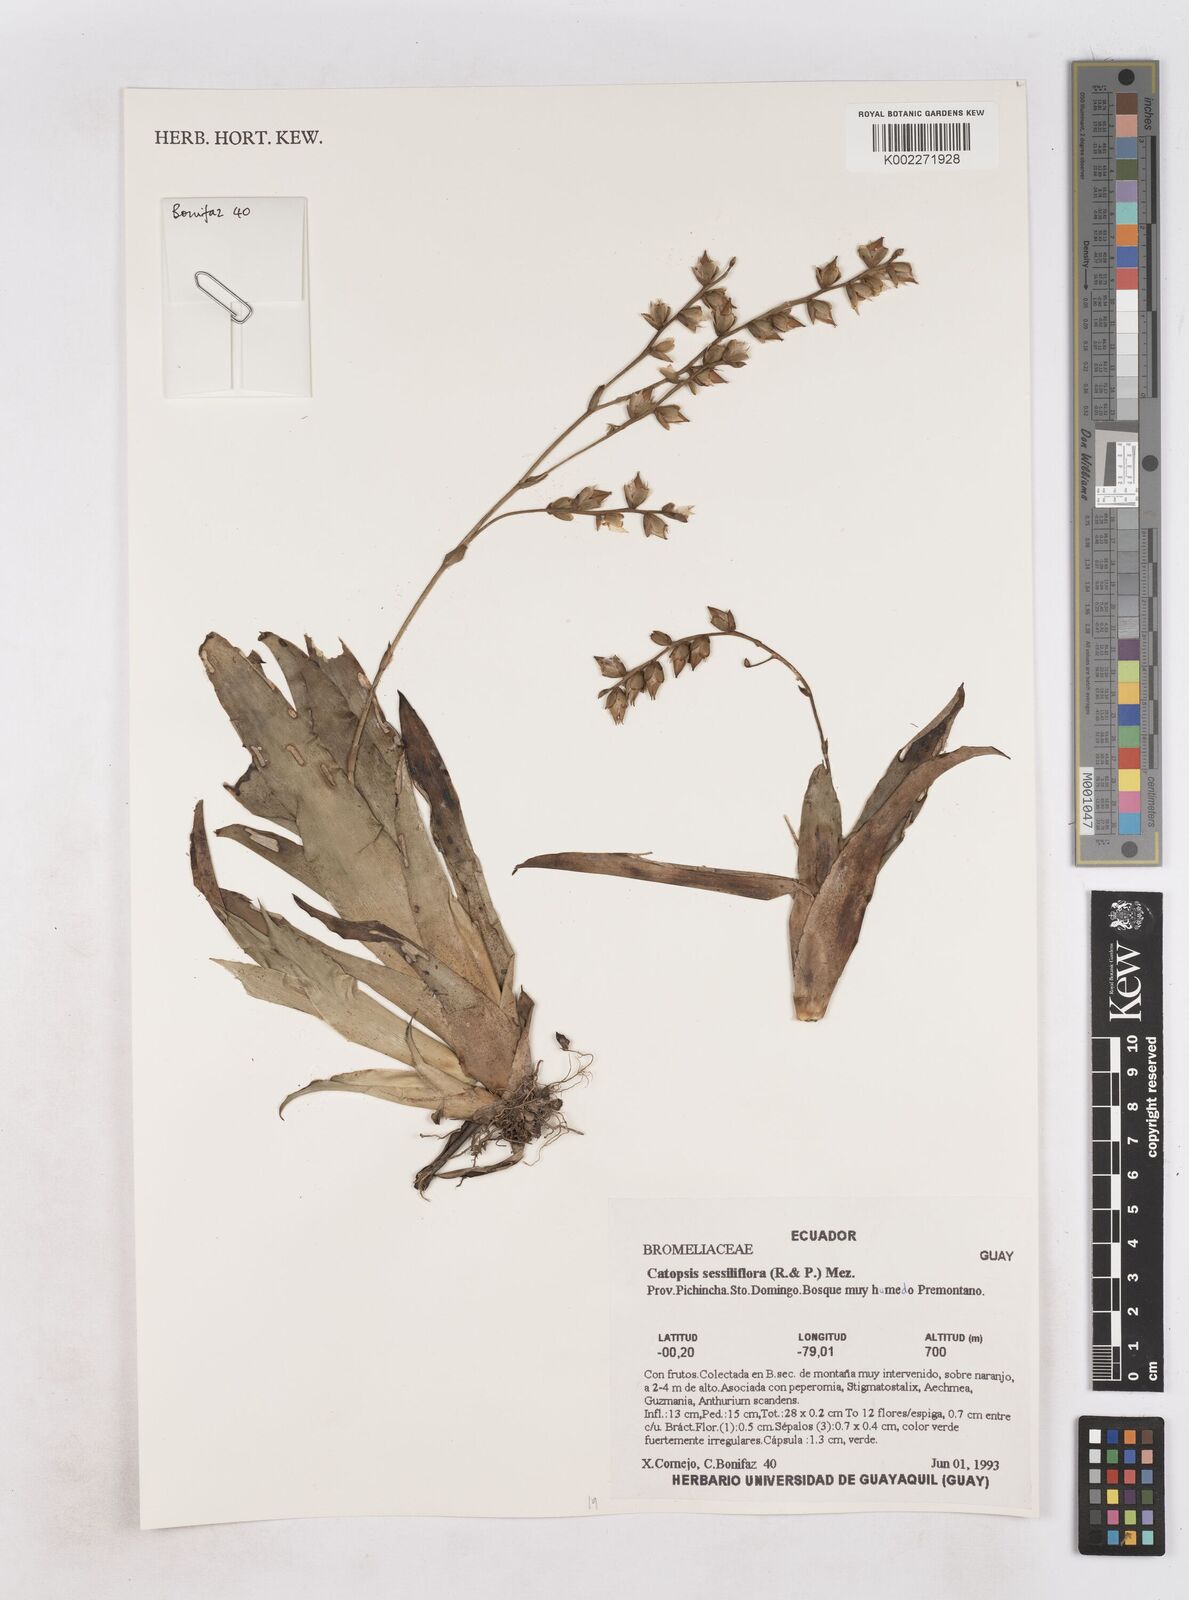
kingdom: Plantae
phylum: Tracheophyta
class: Liliopsida
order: Poales
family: Bromeliaceae
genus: Catopsis
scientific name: Catopsis sessiliflora
